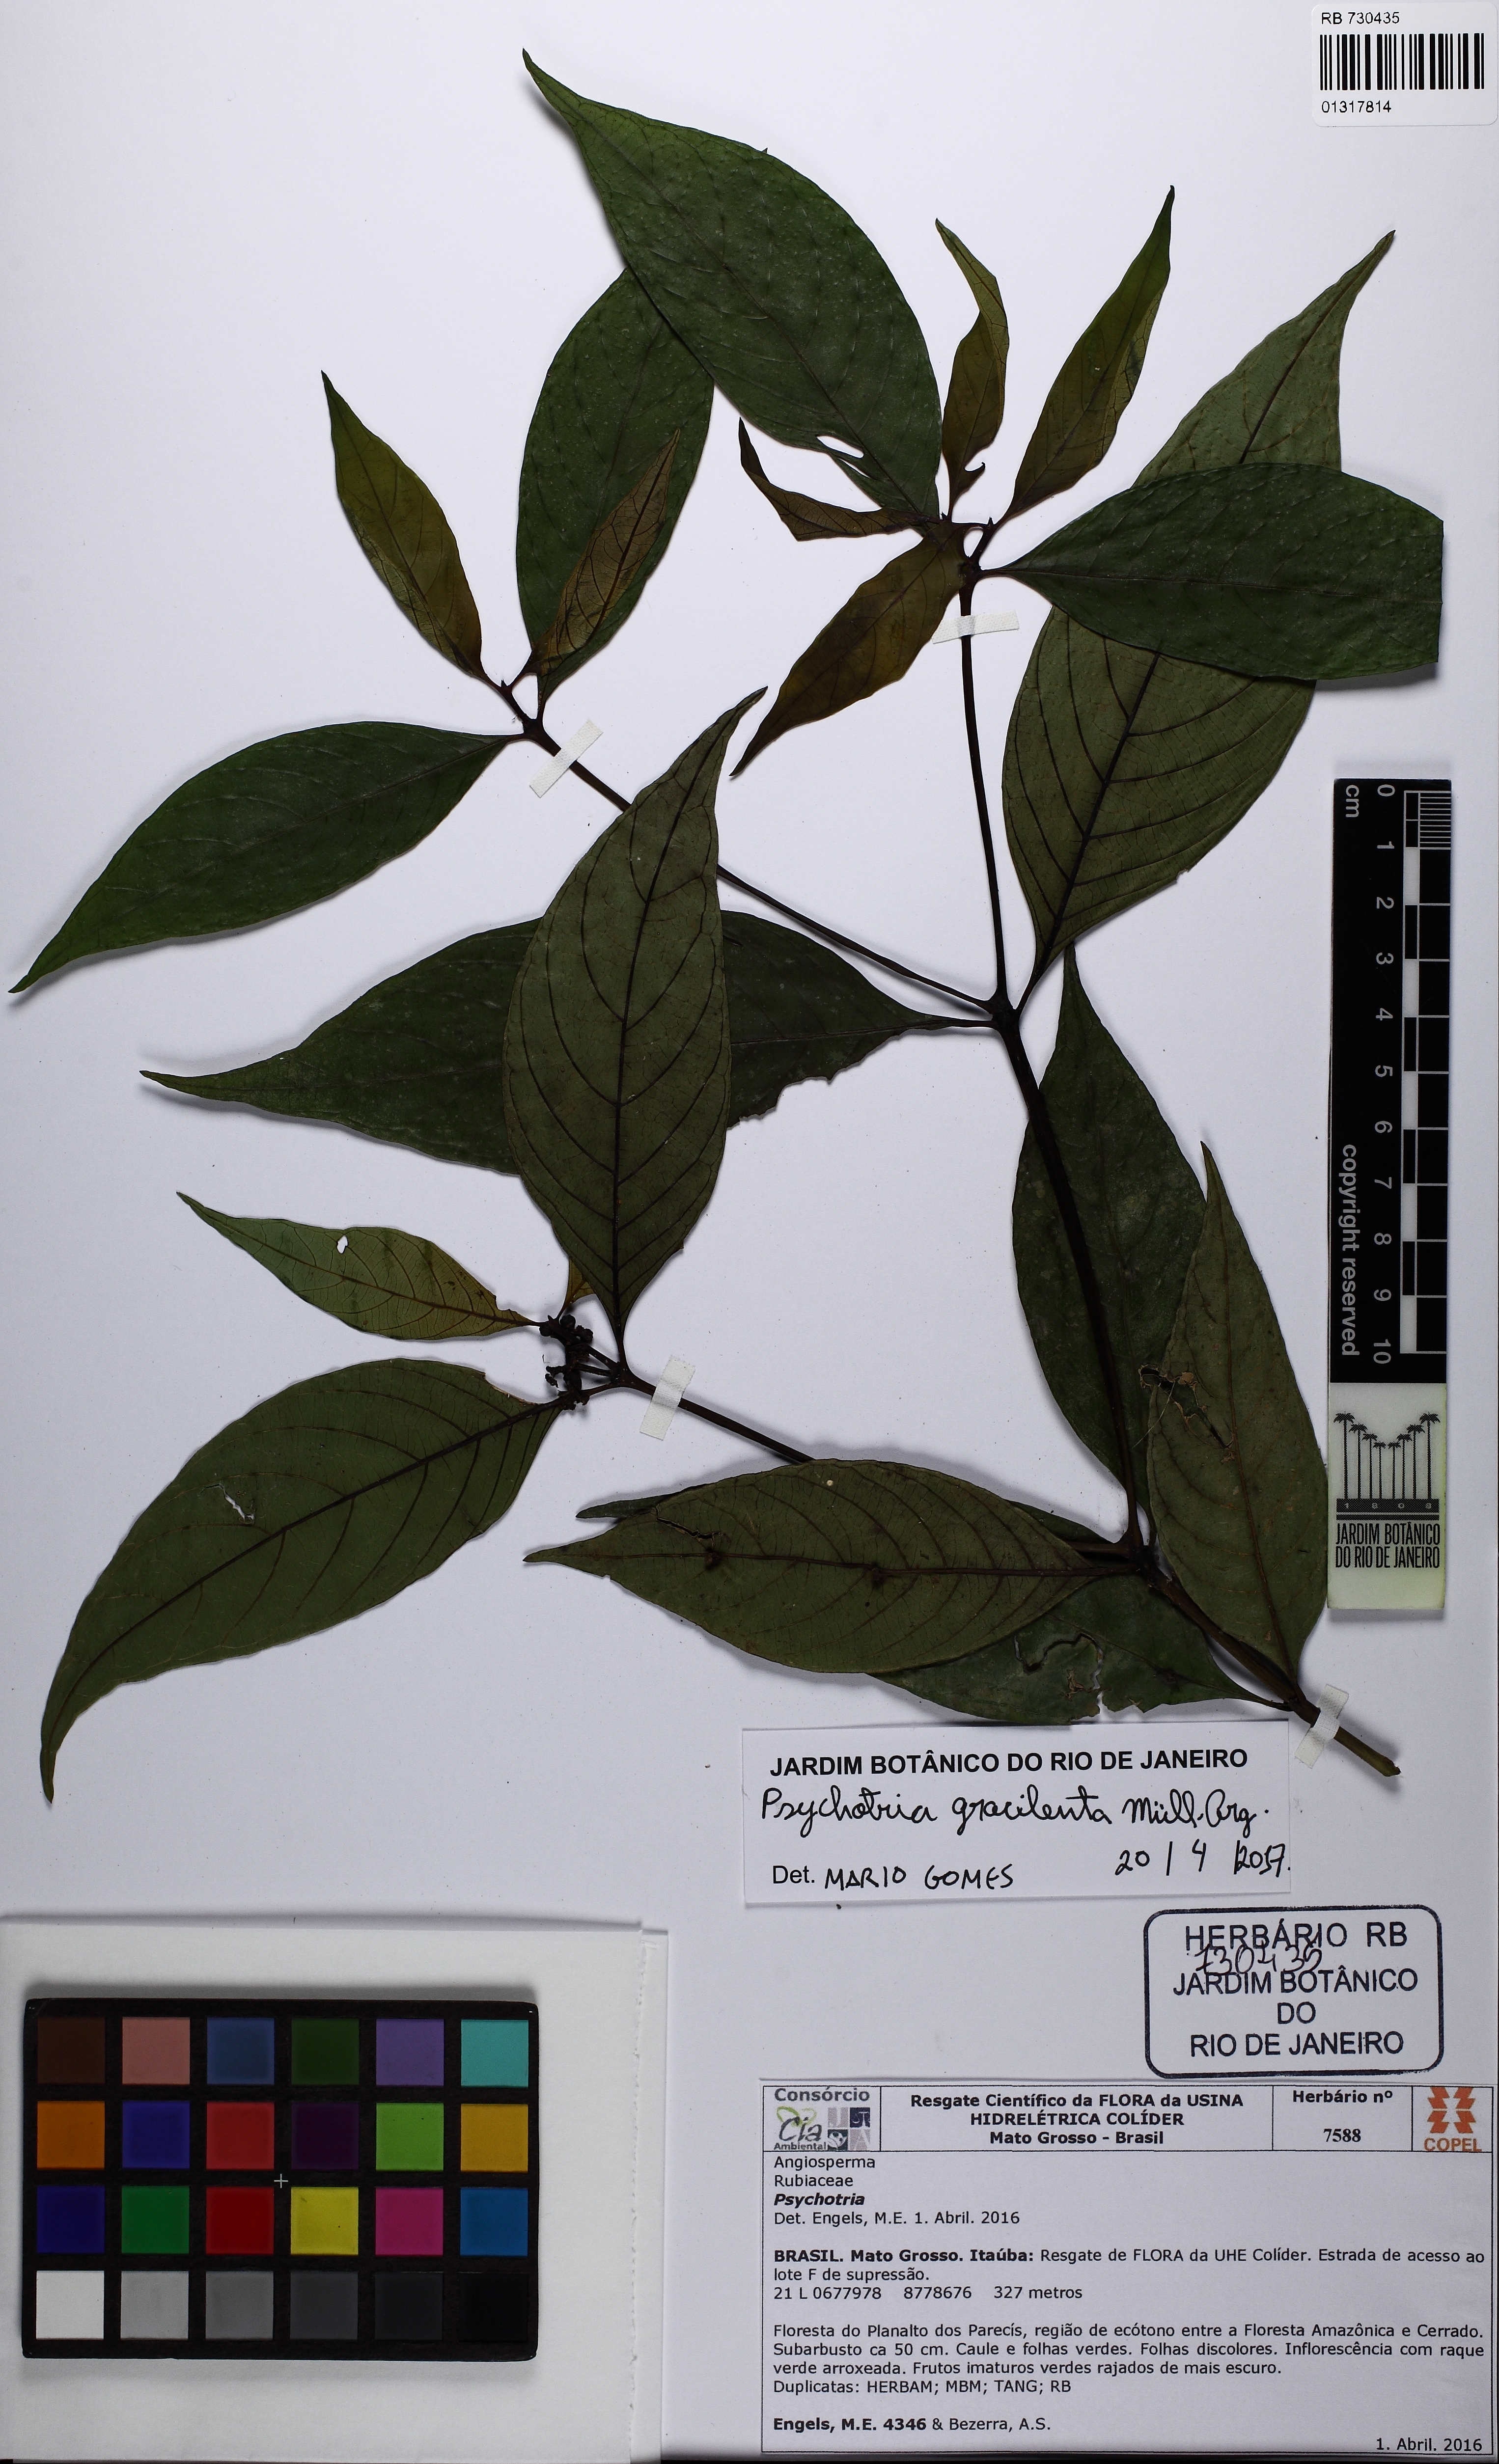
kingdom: Plantae
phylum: Tracheophyta
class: Magnoliopsida
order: Gentianales
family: Rubiaceae
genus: Palicourea
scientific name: Palicourea gracilenta
